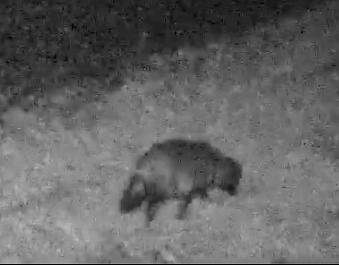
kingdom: Animalia
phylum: Chordata
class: Mammalia
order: Carnivora
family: Canidae
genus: Nyctereutes
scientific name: Nyctereutes procyonoides
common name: Mårhund
